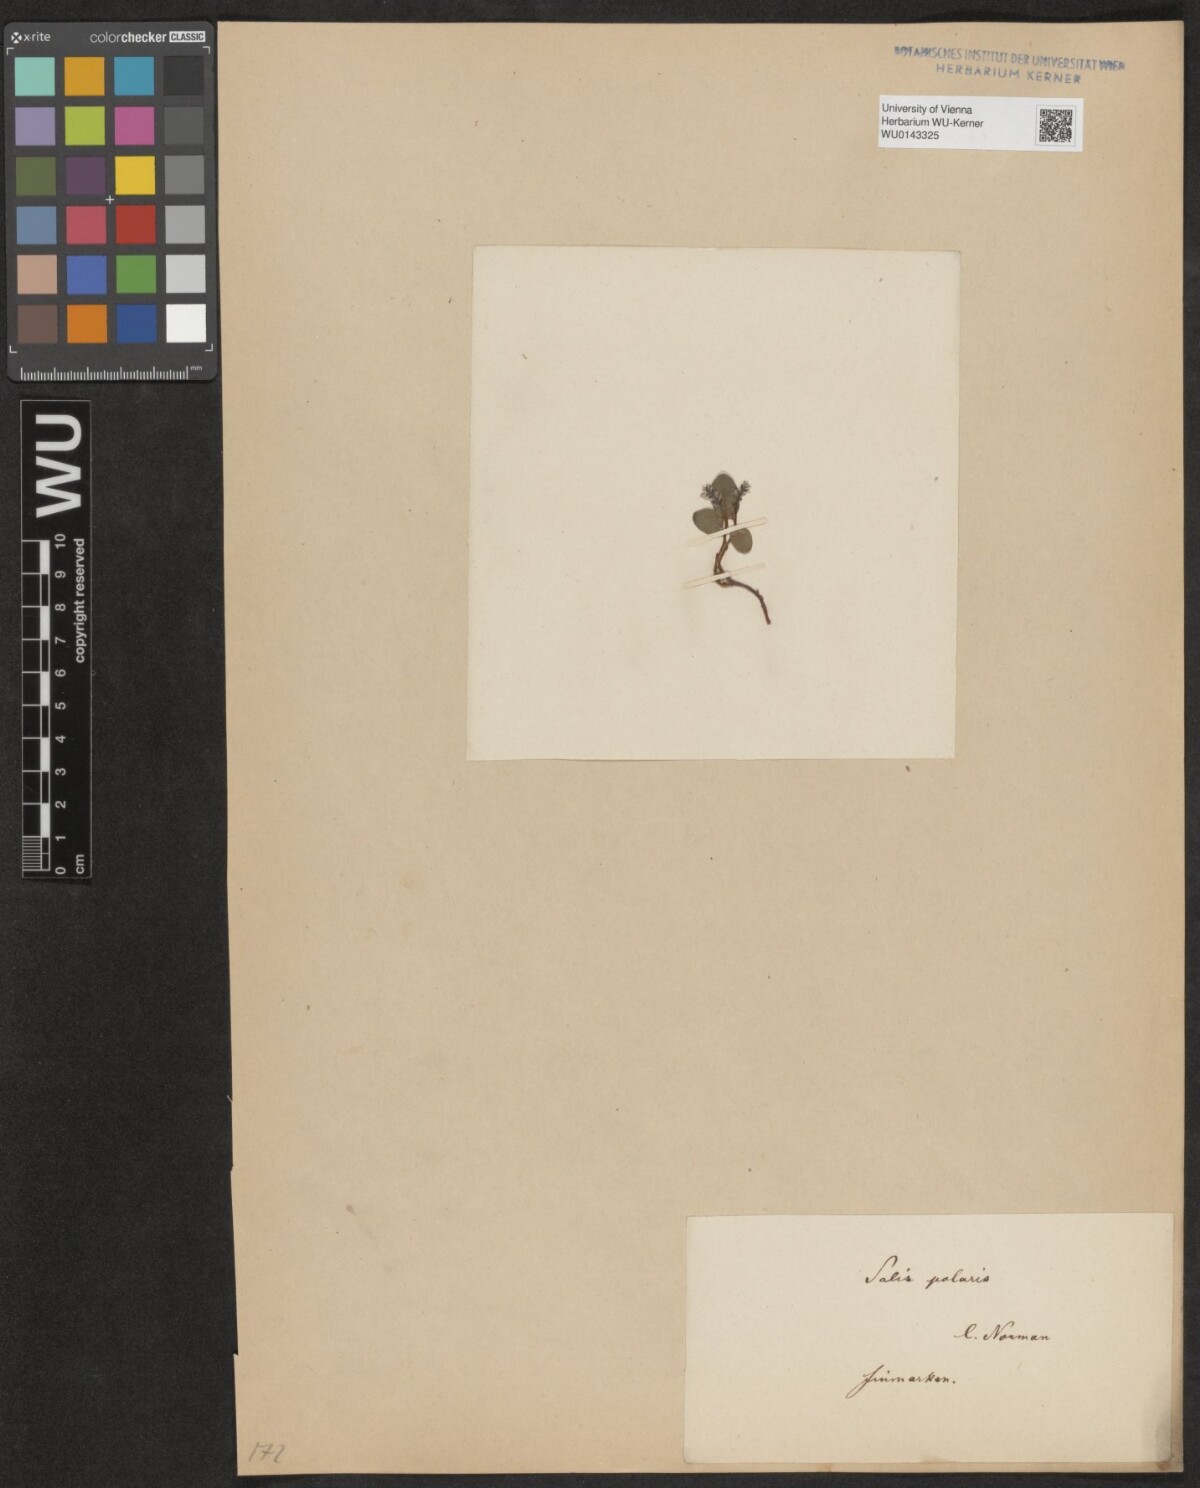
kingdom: Plantae
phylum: Tracheophyta
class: Magnoliopsida
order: Malpighiales
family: Salicaceae
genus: Salix
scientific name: Salix polaris
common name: Polar willow
